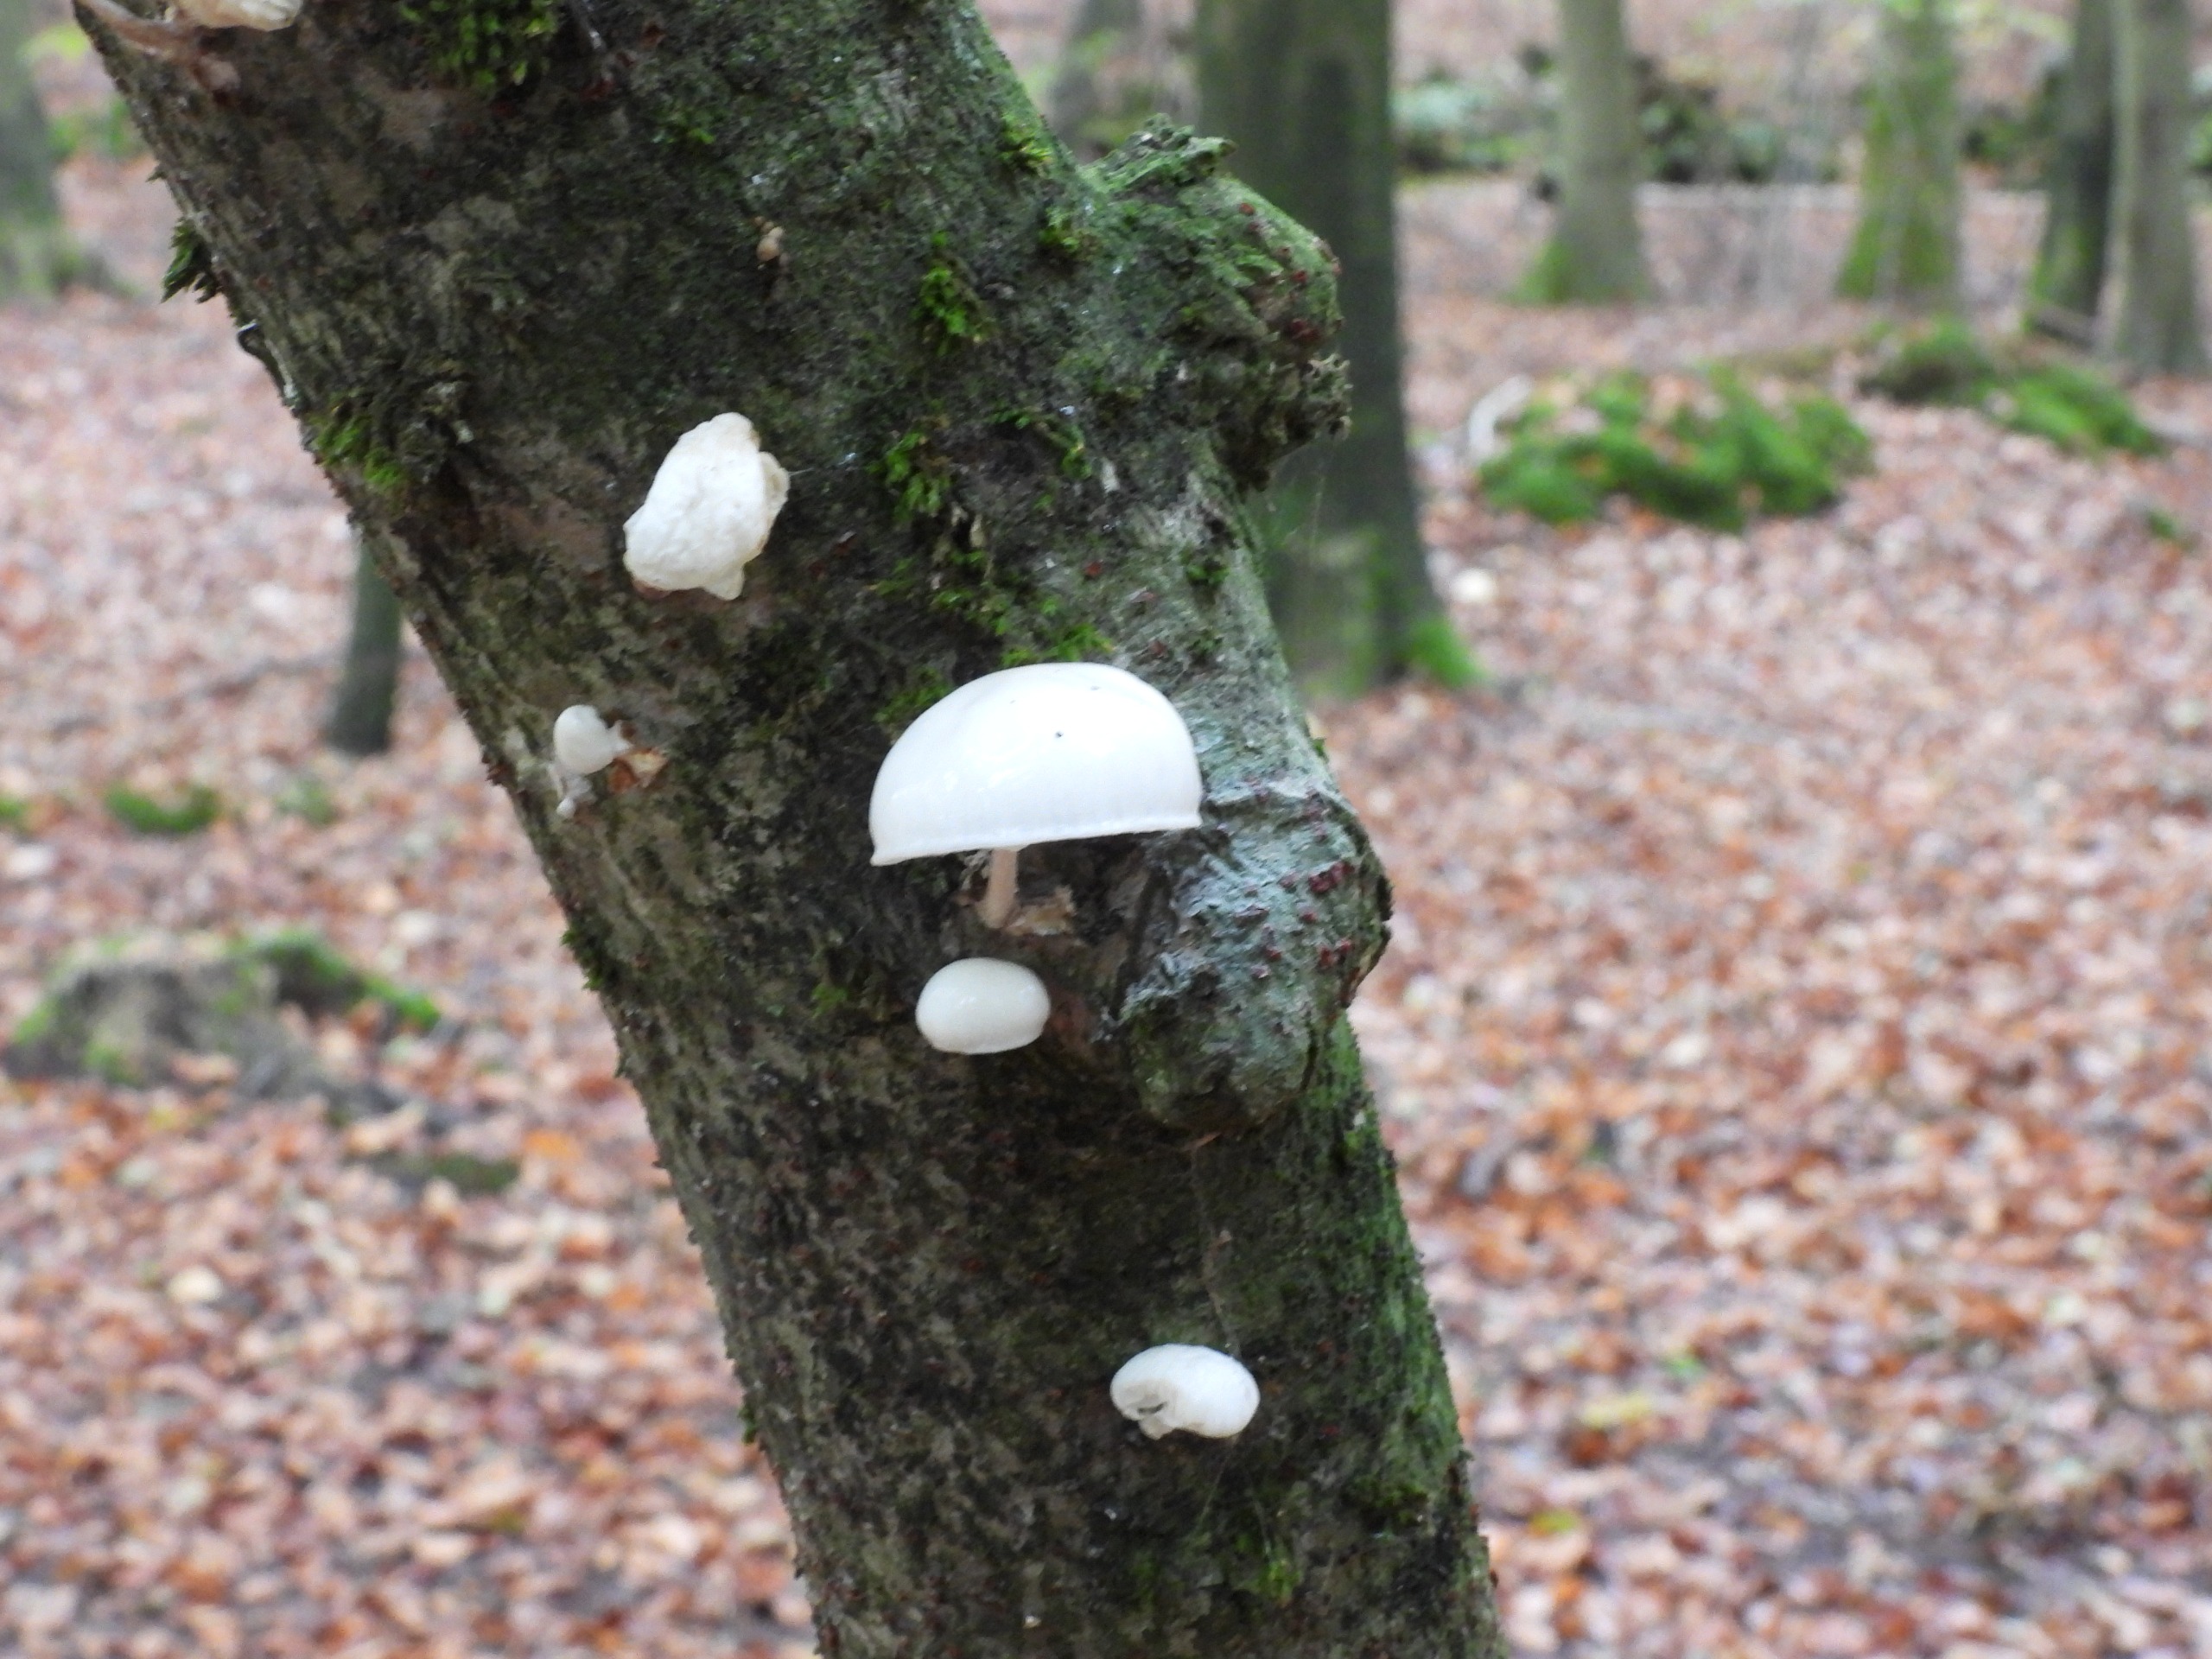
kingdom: Fungi
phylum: Basidiomycota
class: Agaricomycetes
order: Agaricales
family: Physalacriaceae
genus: Mucidula
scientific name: Mucidula mucida
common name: Porcelænshat
